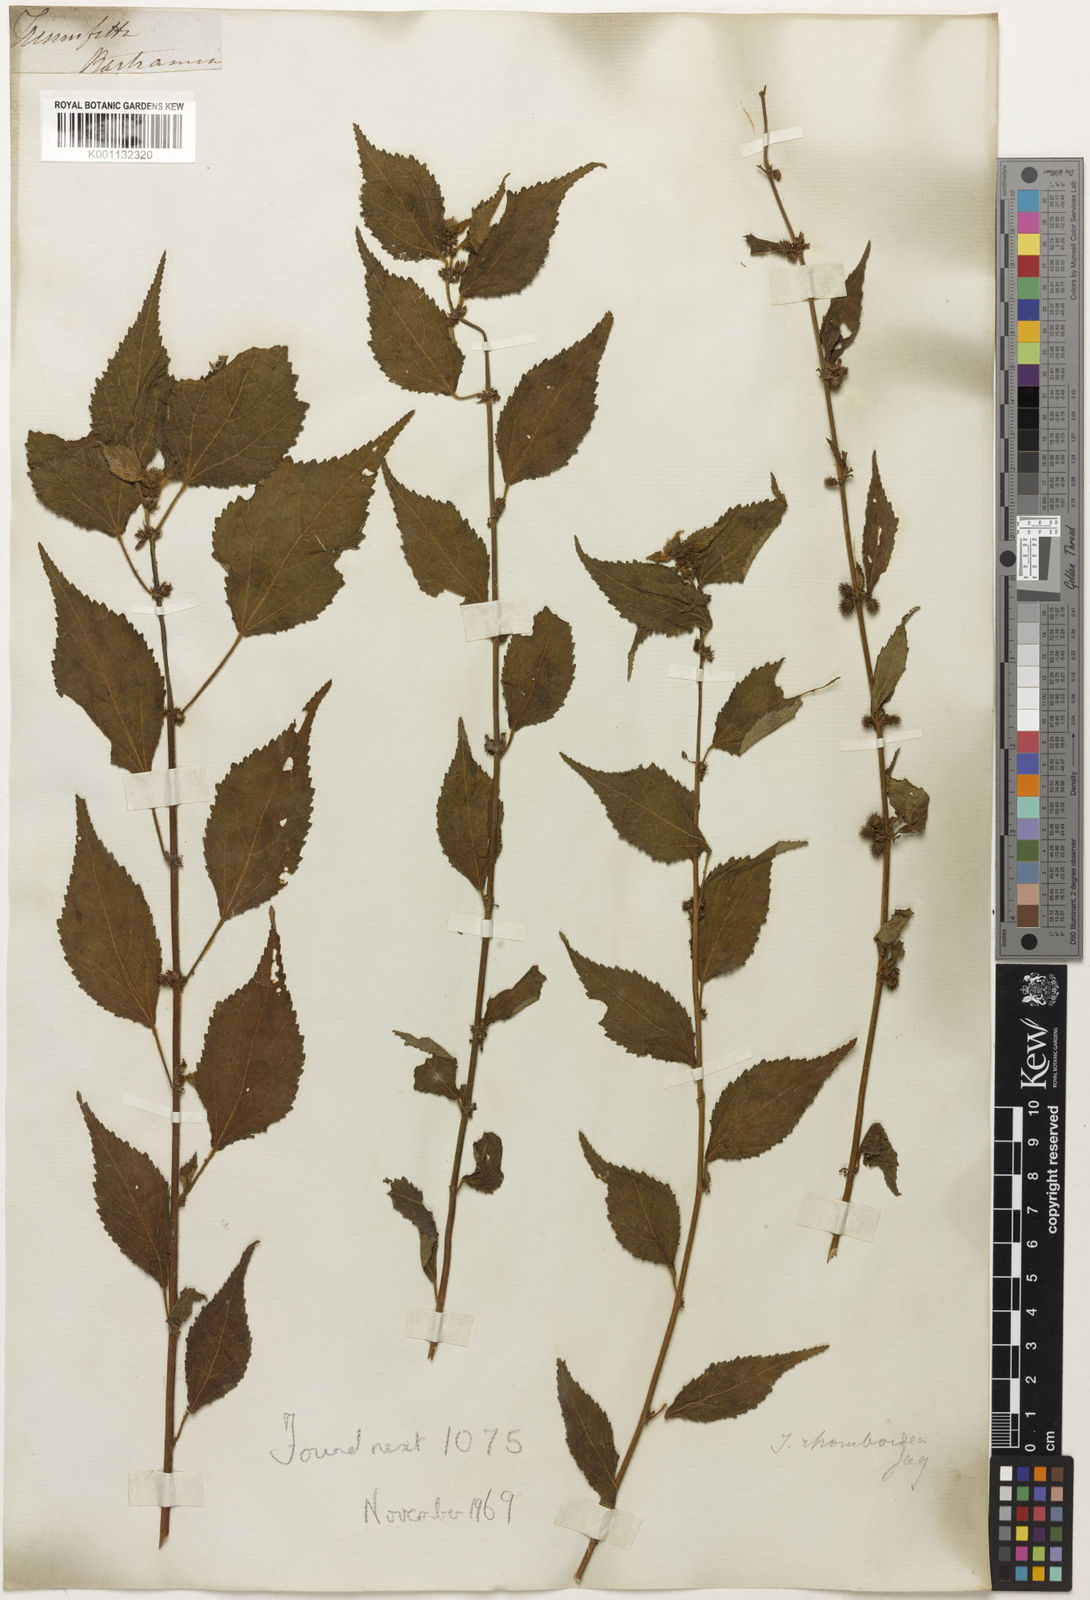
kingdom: Plantae
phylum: Tracheophyta
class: Magnoliopsida
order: Malvales
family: Malvaceae
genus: Triumfetta
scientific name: Triumfetta
